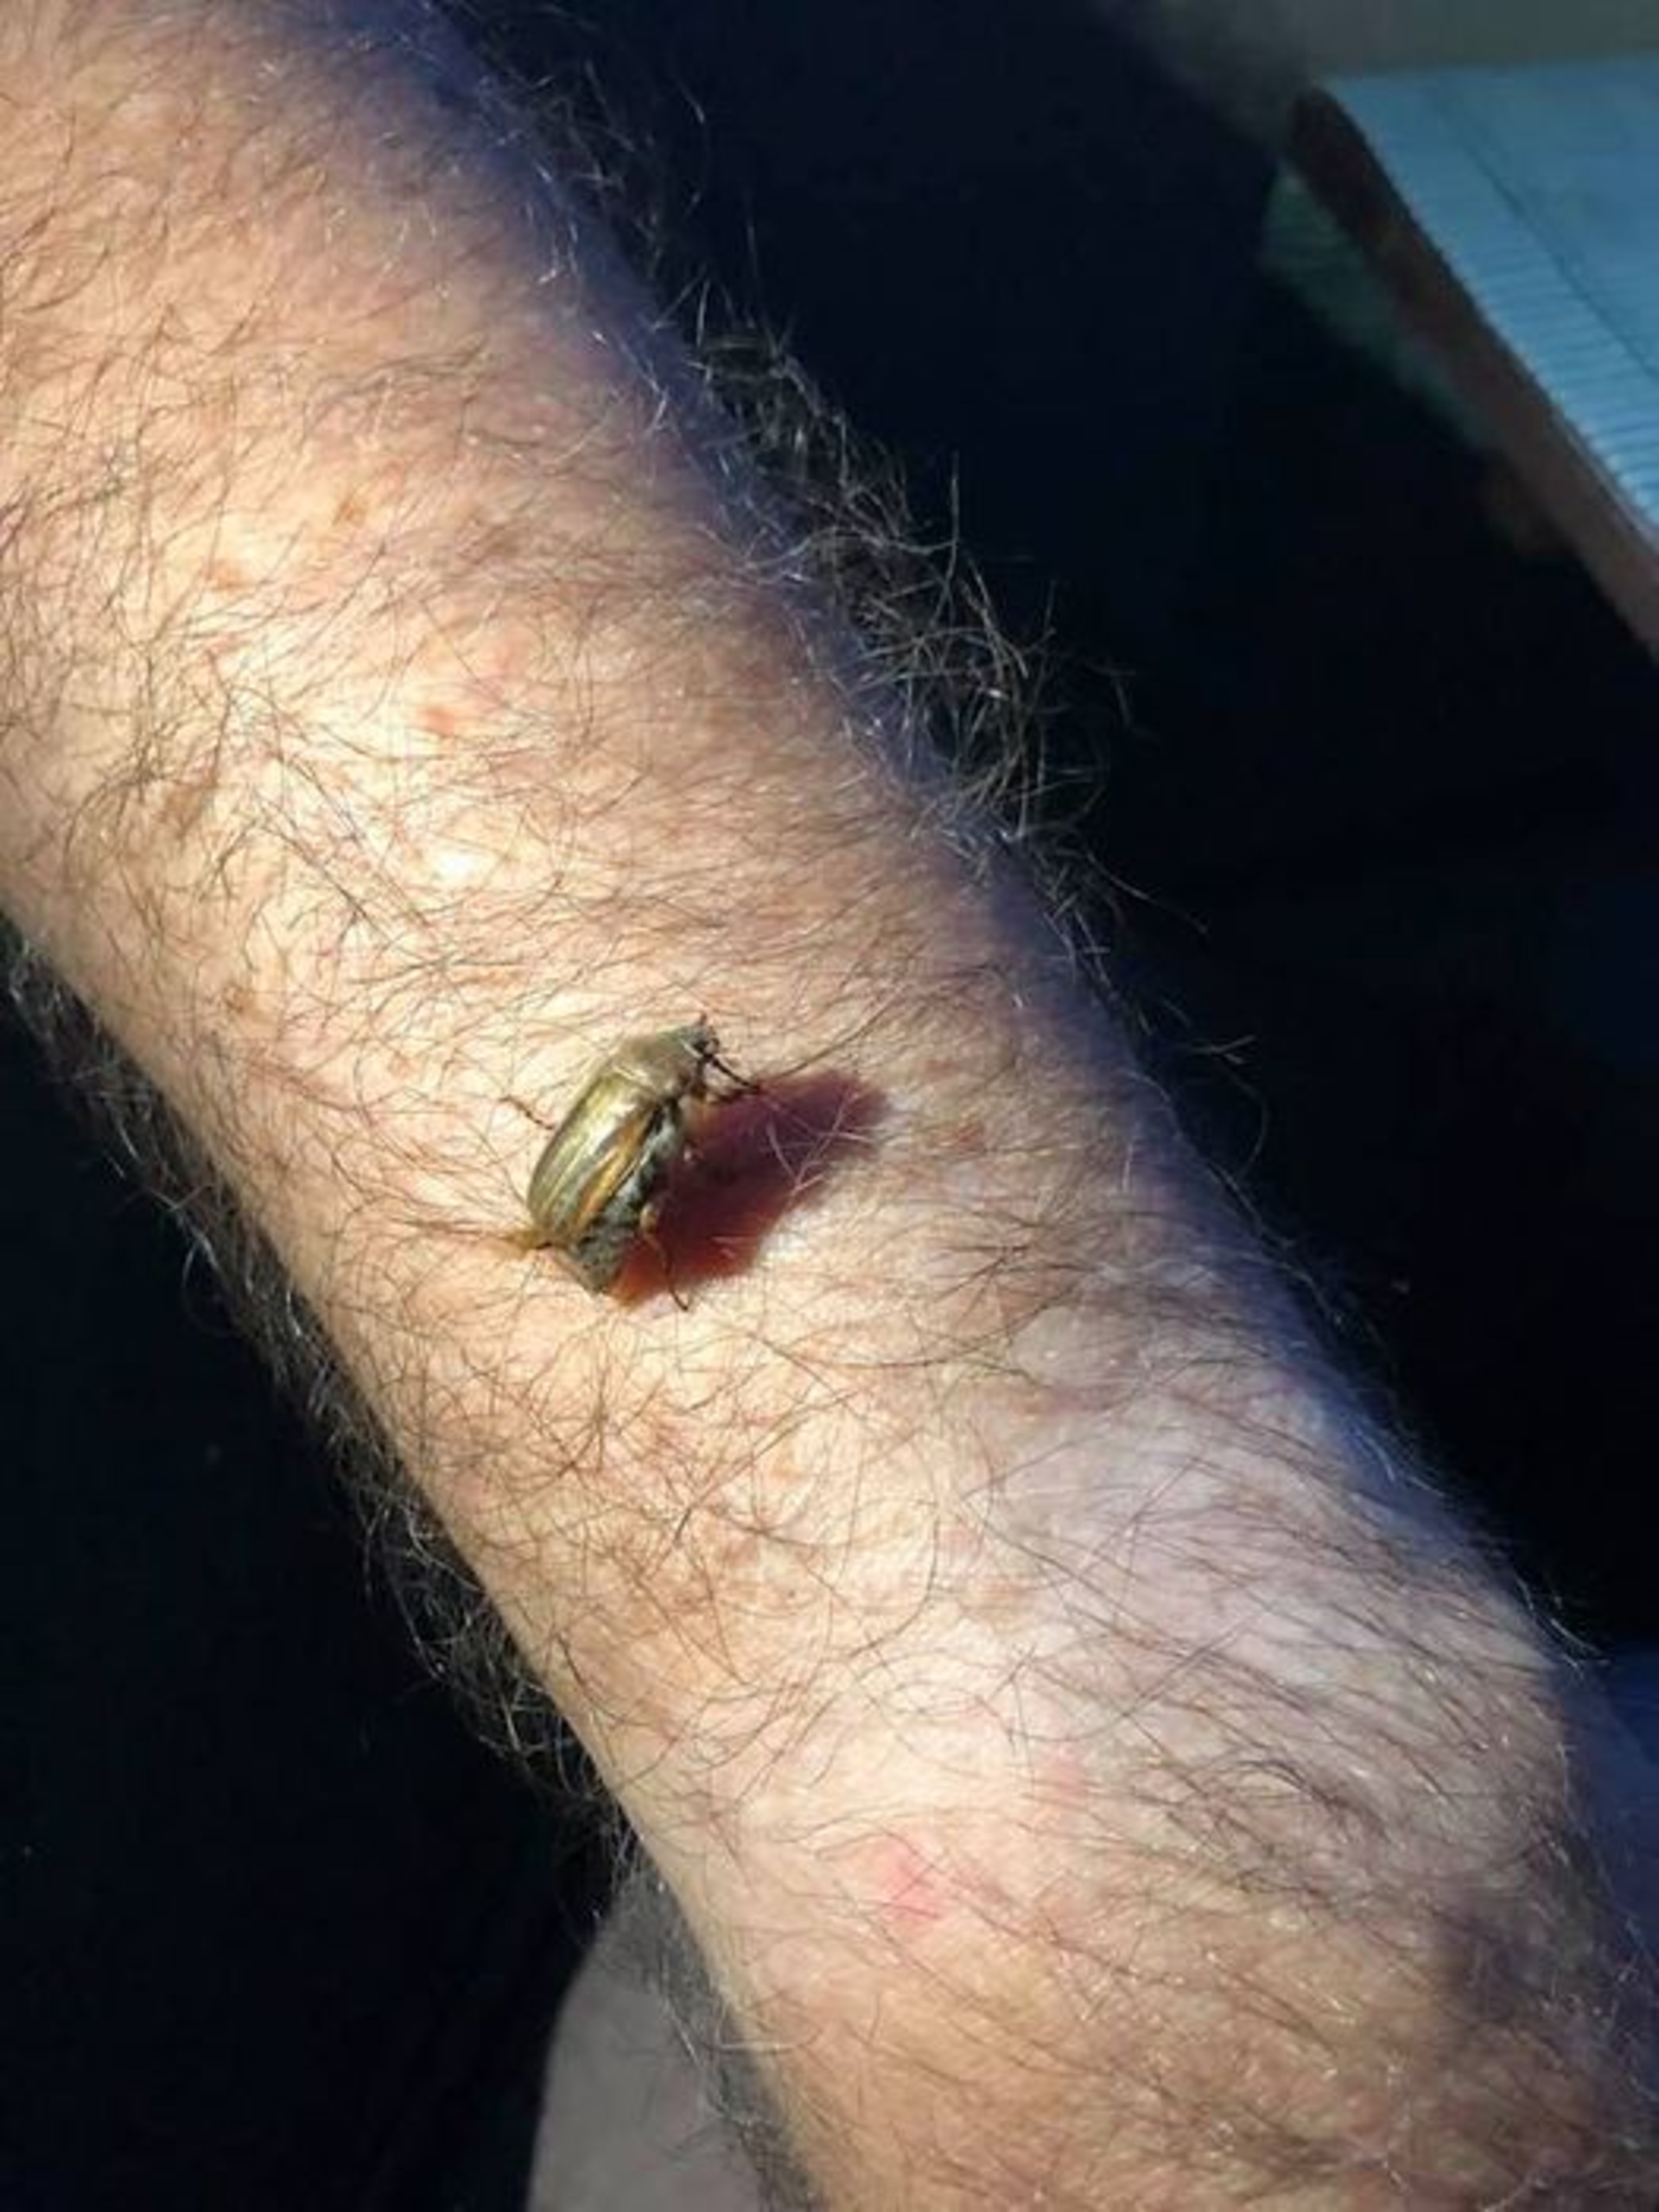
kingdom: Animalia
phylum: Arthropoda
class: Insecta
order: Coleoptera
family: Scarabaeidae
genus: Amphimallon
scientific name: Amphimallon solstitiale
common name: Sankthansoldenborre
